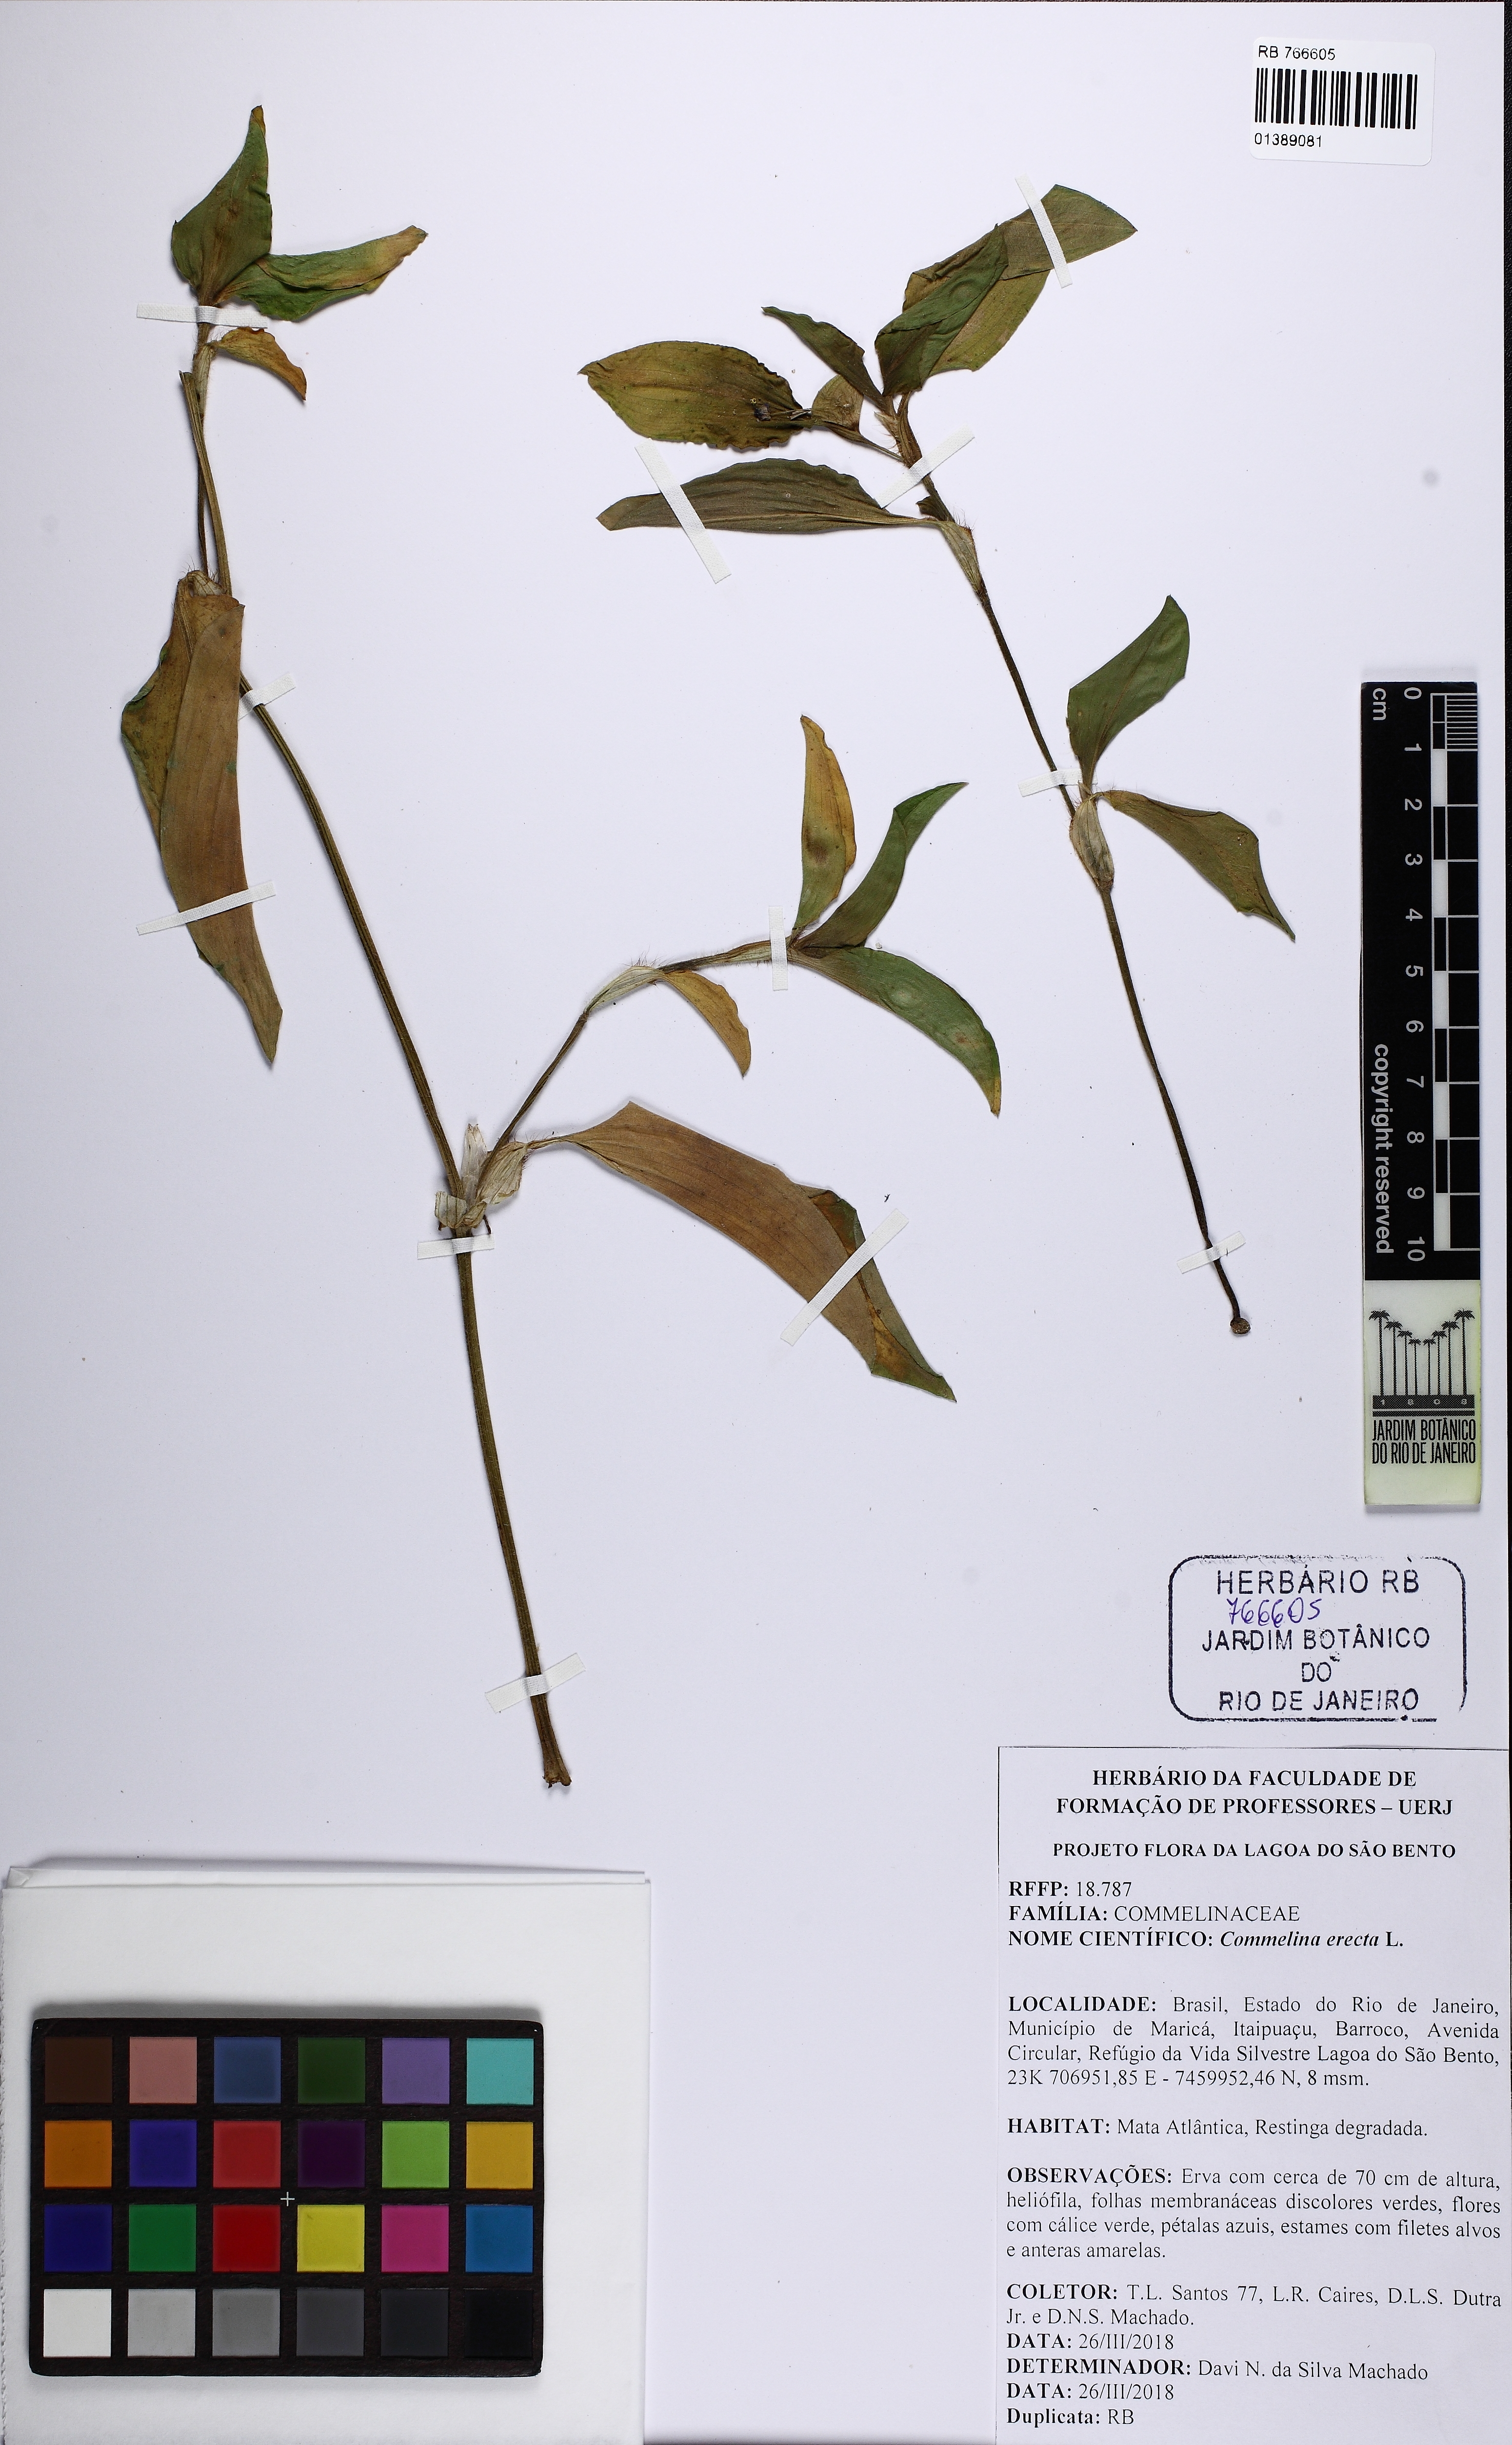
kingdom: Plantae
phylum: Tracheophyta
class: Liliopsida
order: Commelinales
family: Commelinaceae
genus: Commelina
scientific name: Commelina erecta
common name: Blousel blommetjie
